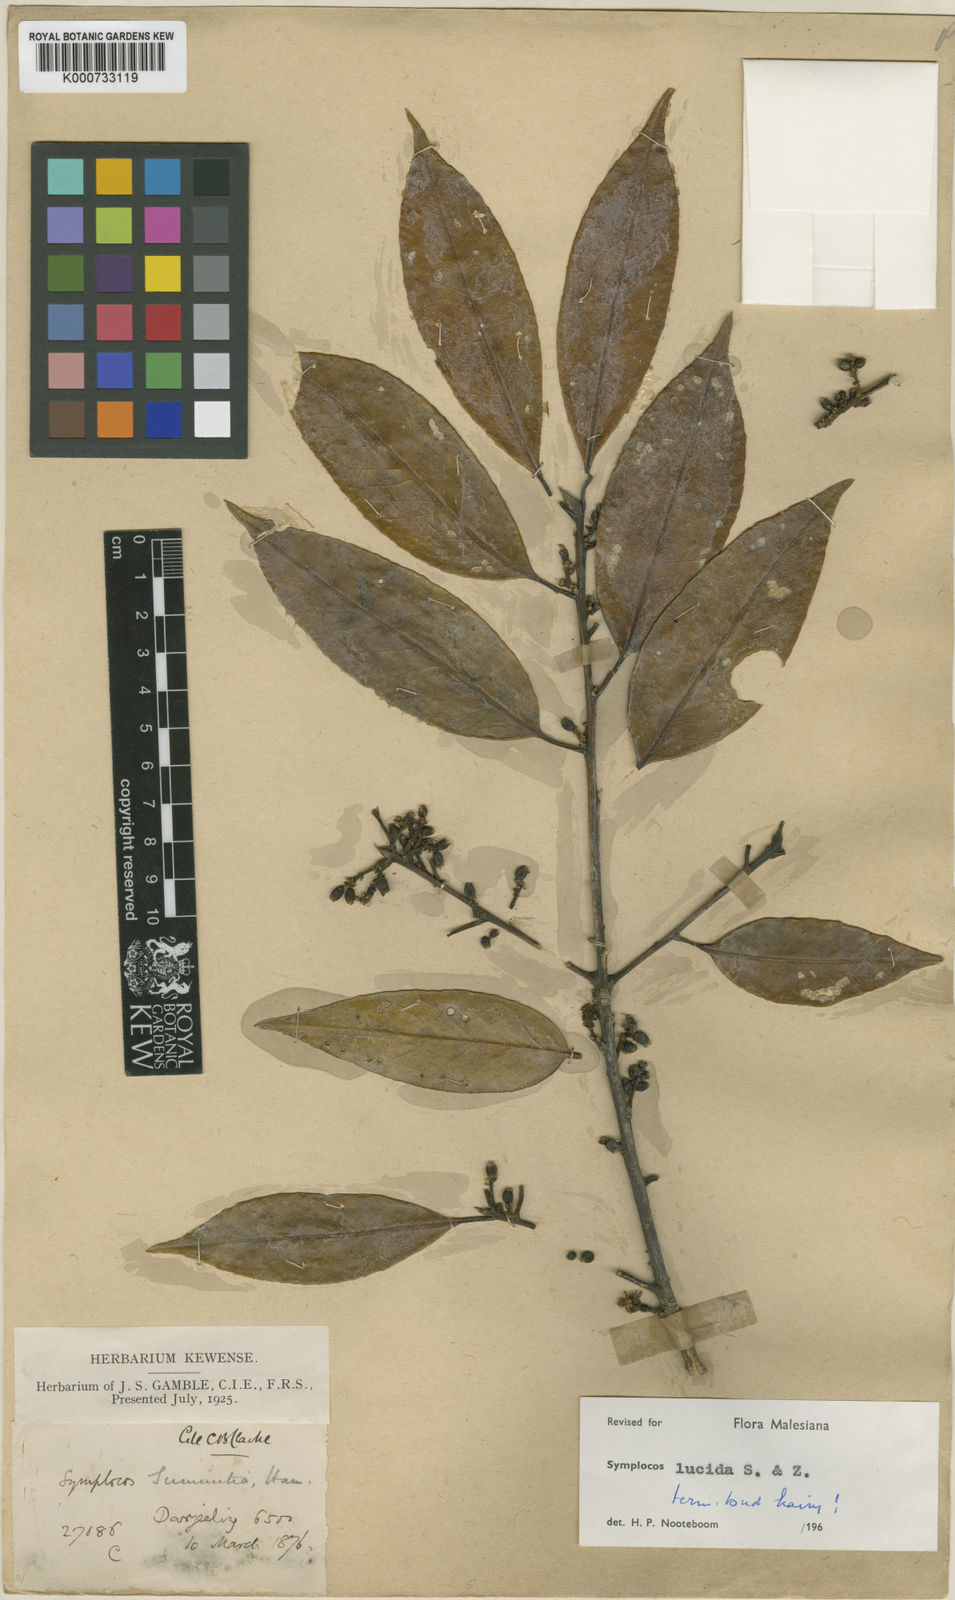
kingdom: Plantae
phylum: Tracheophyta
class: Magnoliopsida
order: Ericales
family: Symplocaceae
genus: Symplocos
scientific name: Symplocos
